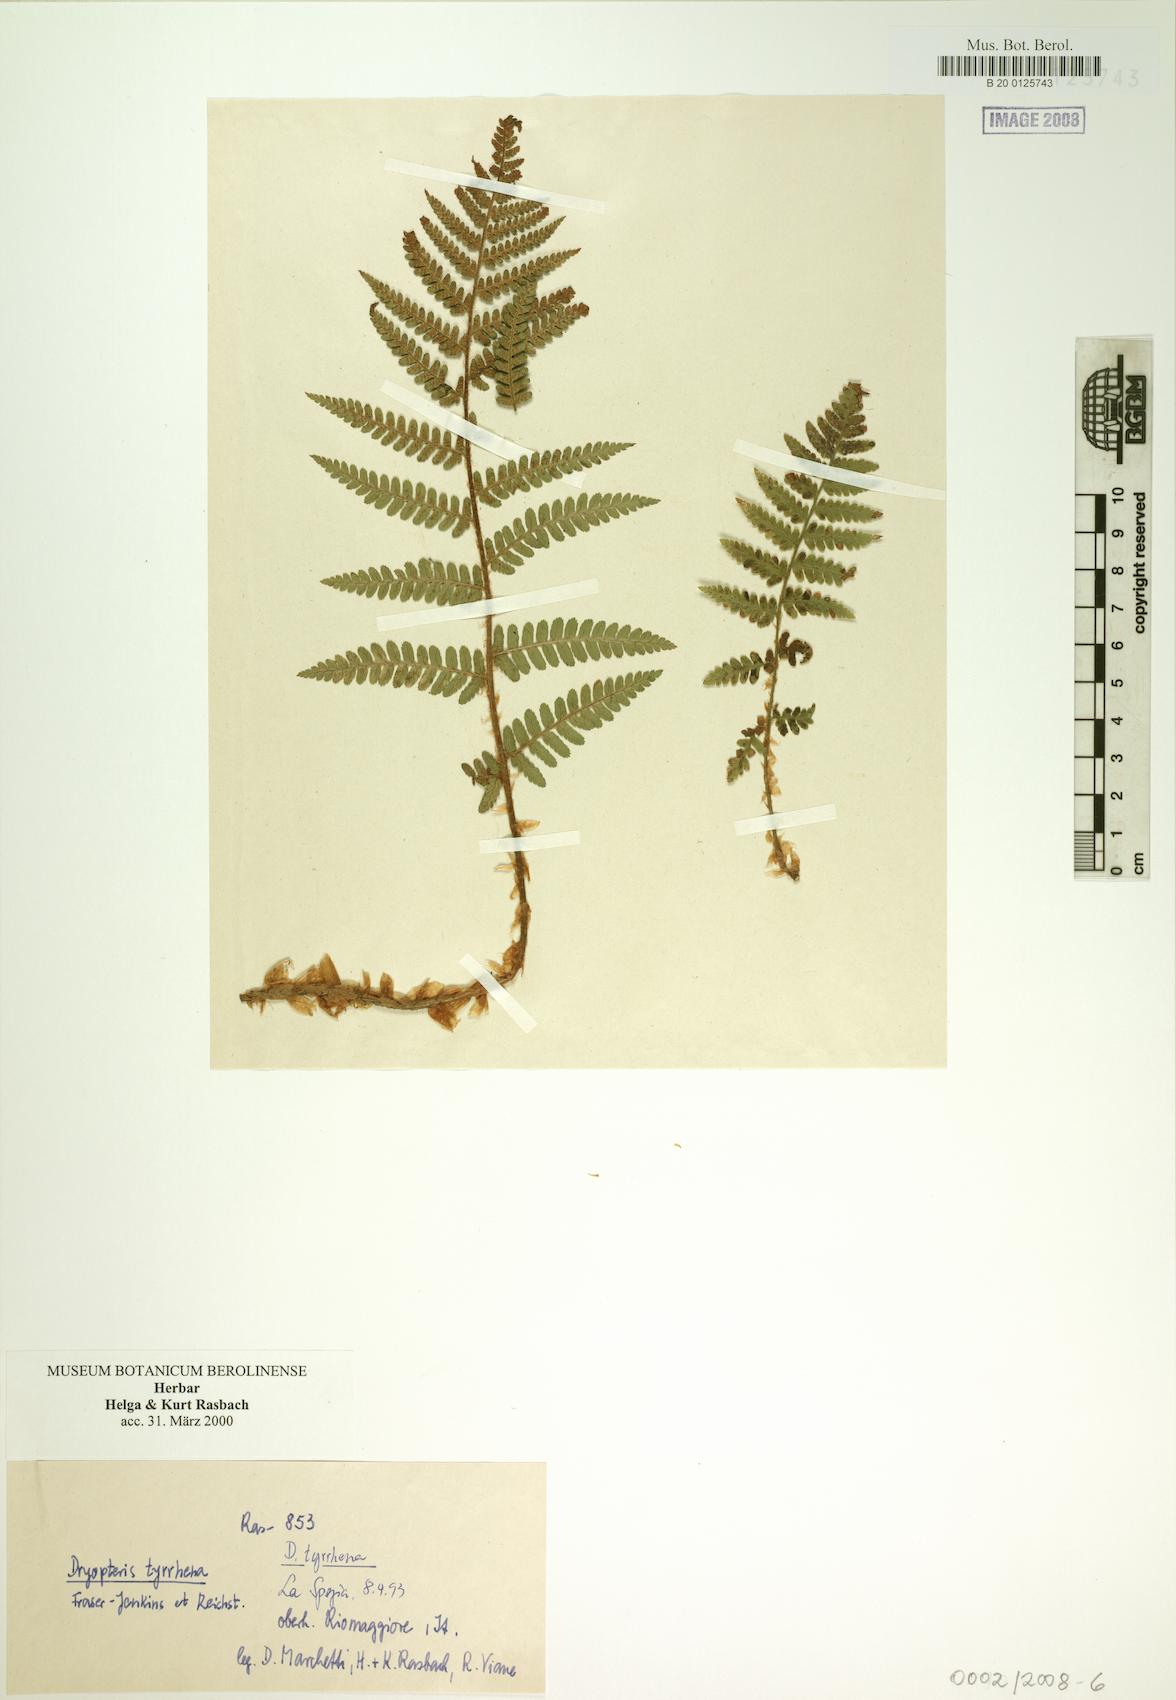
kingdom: Plantae
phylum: Tracheophyta
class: Polypodiopsida
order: Polypodiales
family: Dryopteridaceae
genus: Dryopteris
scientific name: Dryopteris tyrrhena
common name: Mediterranean buckler-fern
